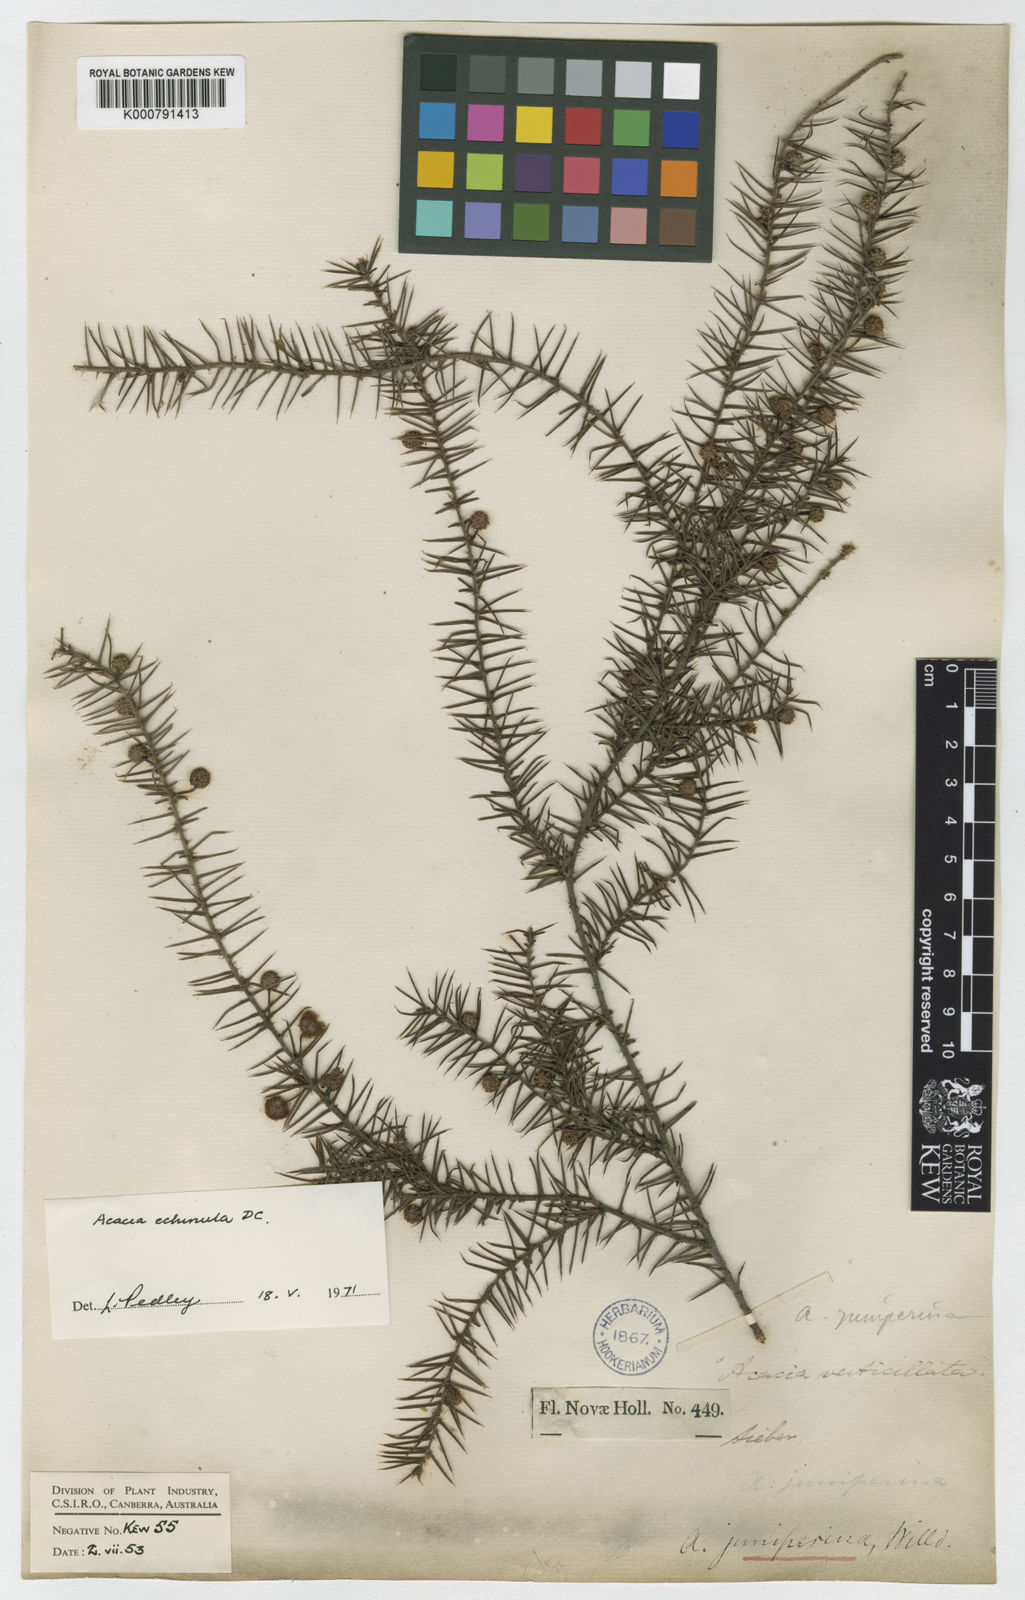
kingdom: Plantae
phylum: Tracheophyta
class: Magnoliopsida
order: Fabales
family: Fabaceae
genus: Acacia
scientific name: Acacia
